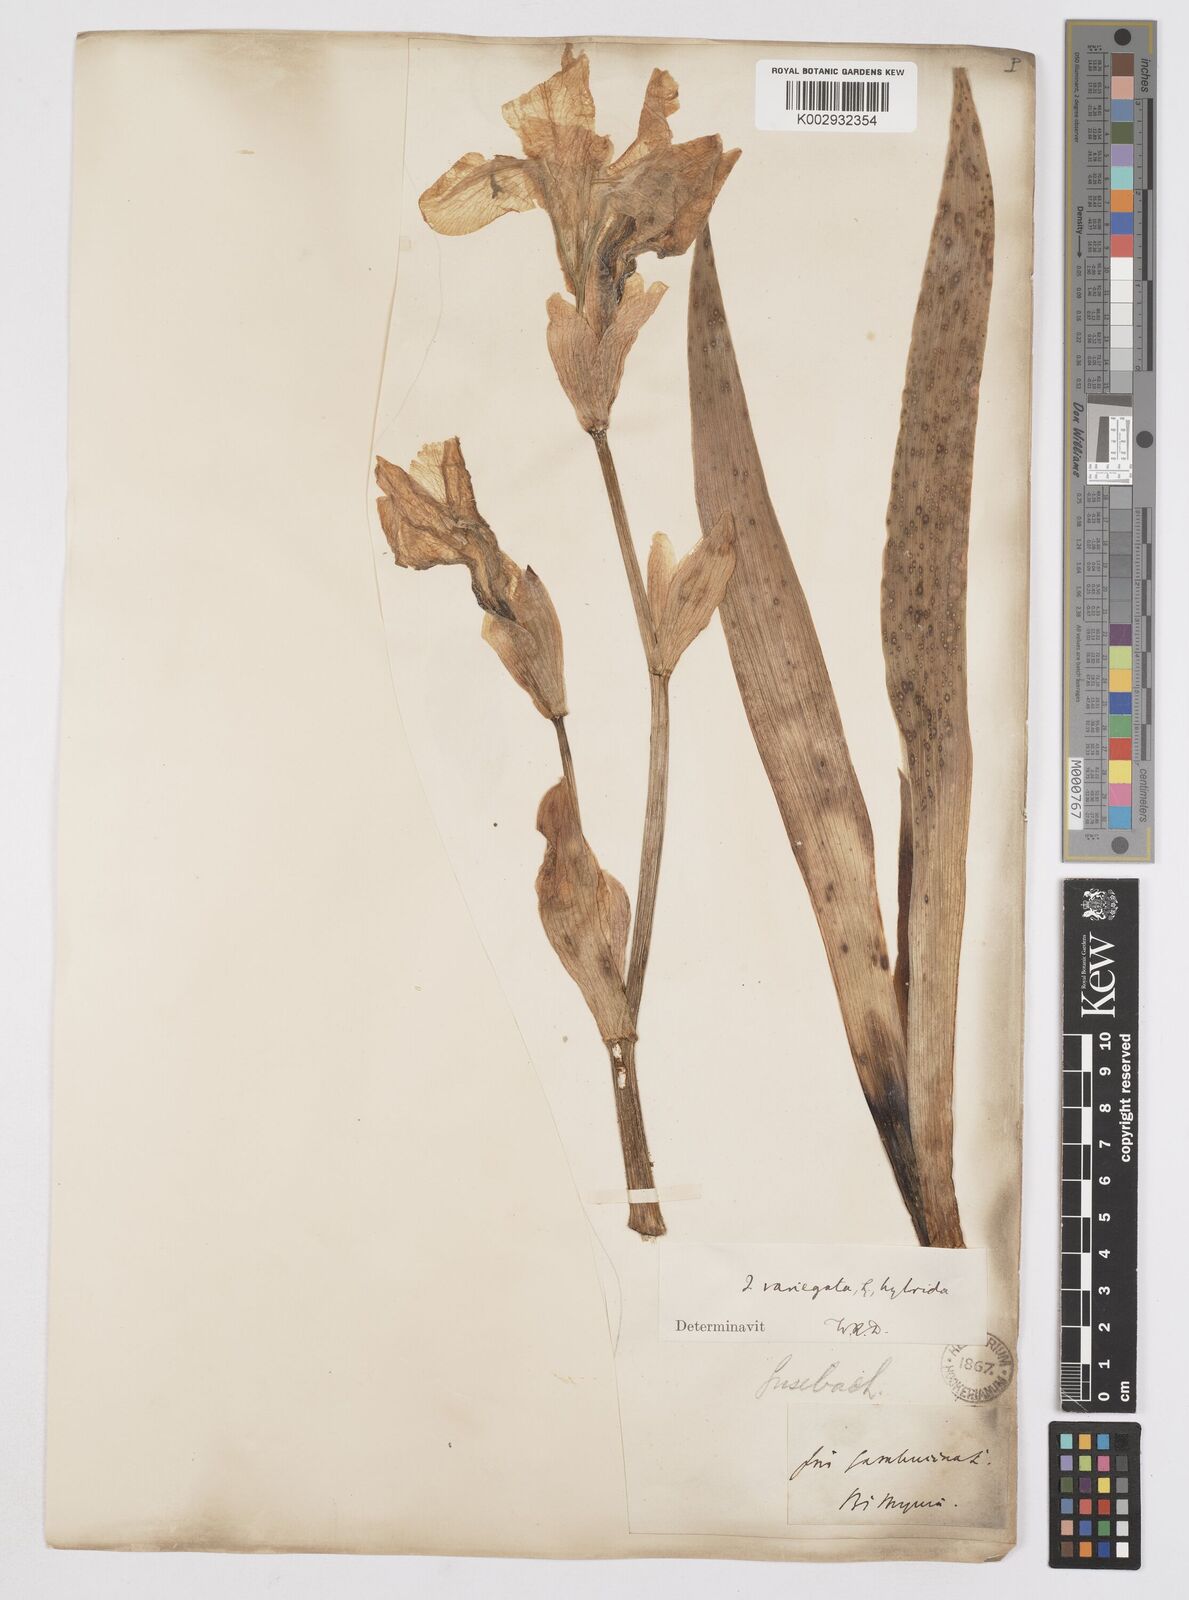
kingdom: Plantae
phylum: Tracheophyta
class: Liliopsida
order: Asparagales
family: Iridaceae
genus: Iris
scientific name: Iris germanica
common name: German iris
